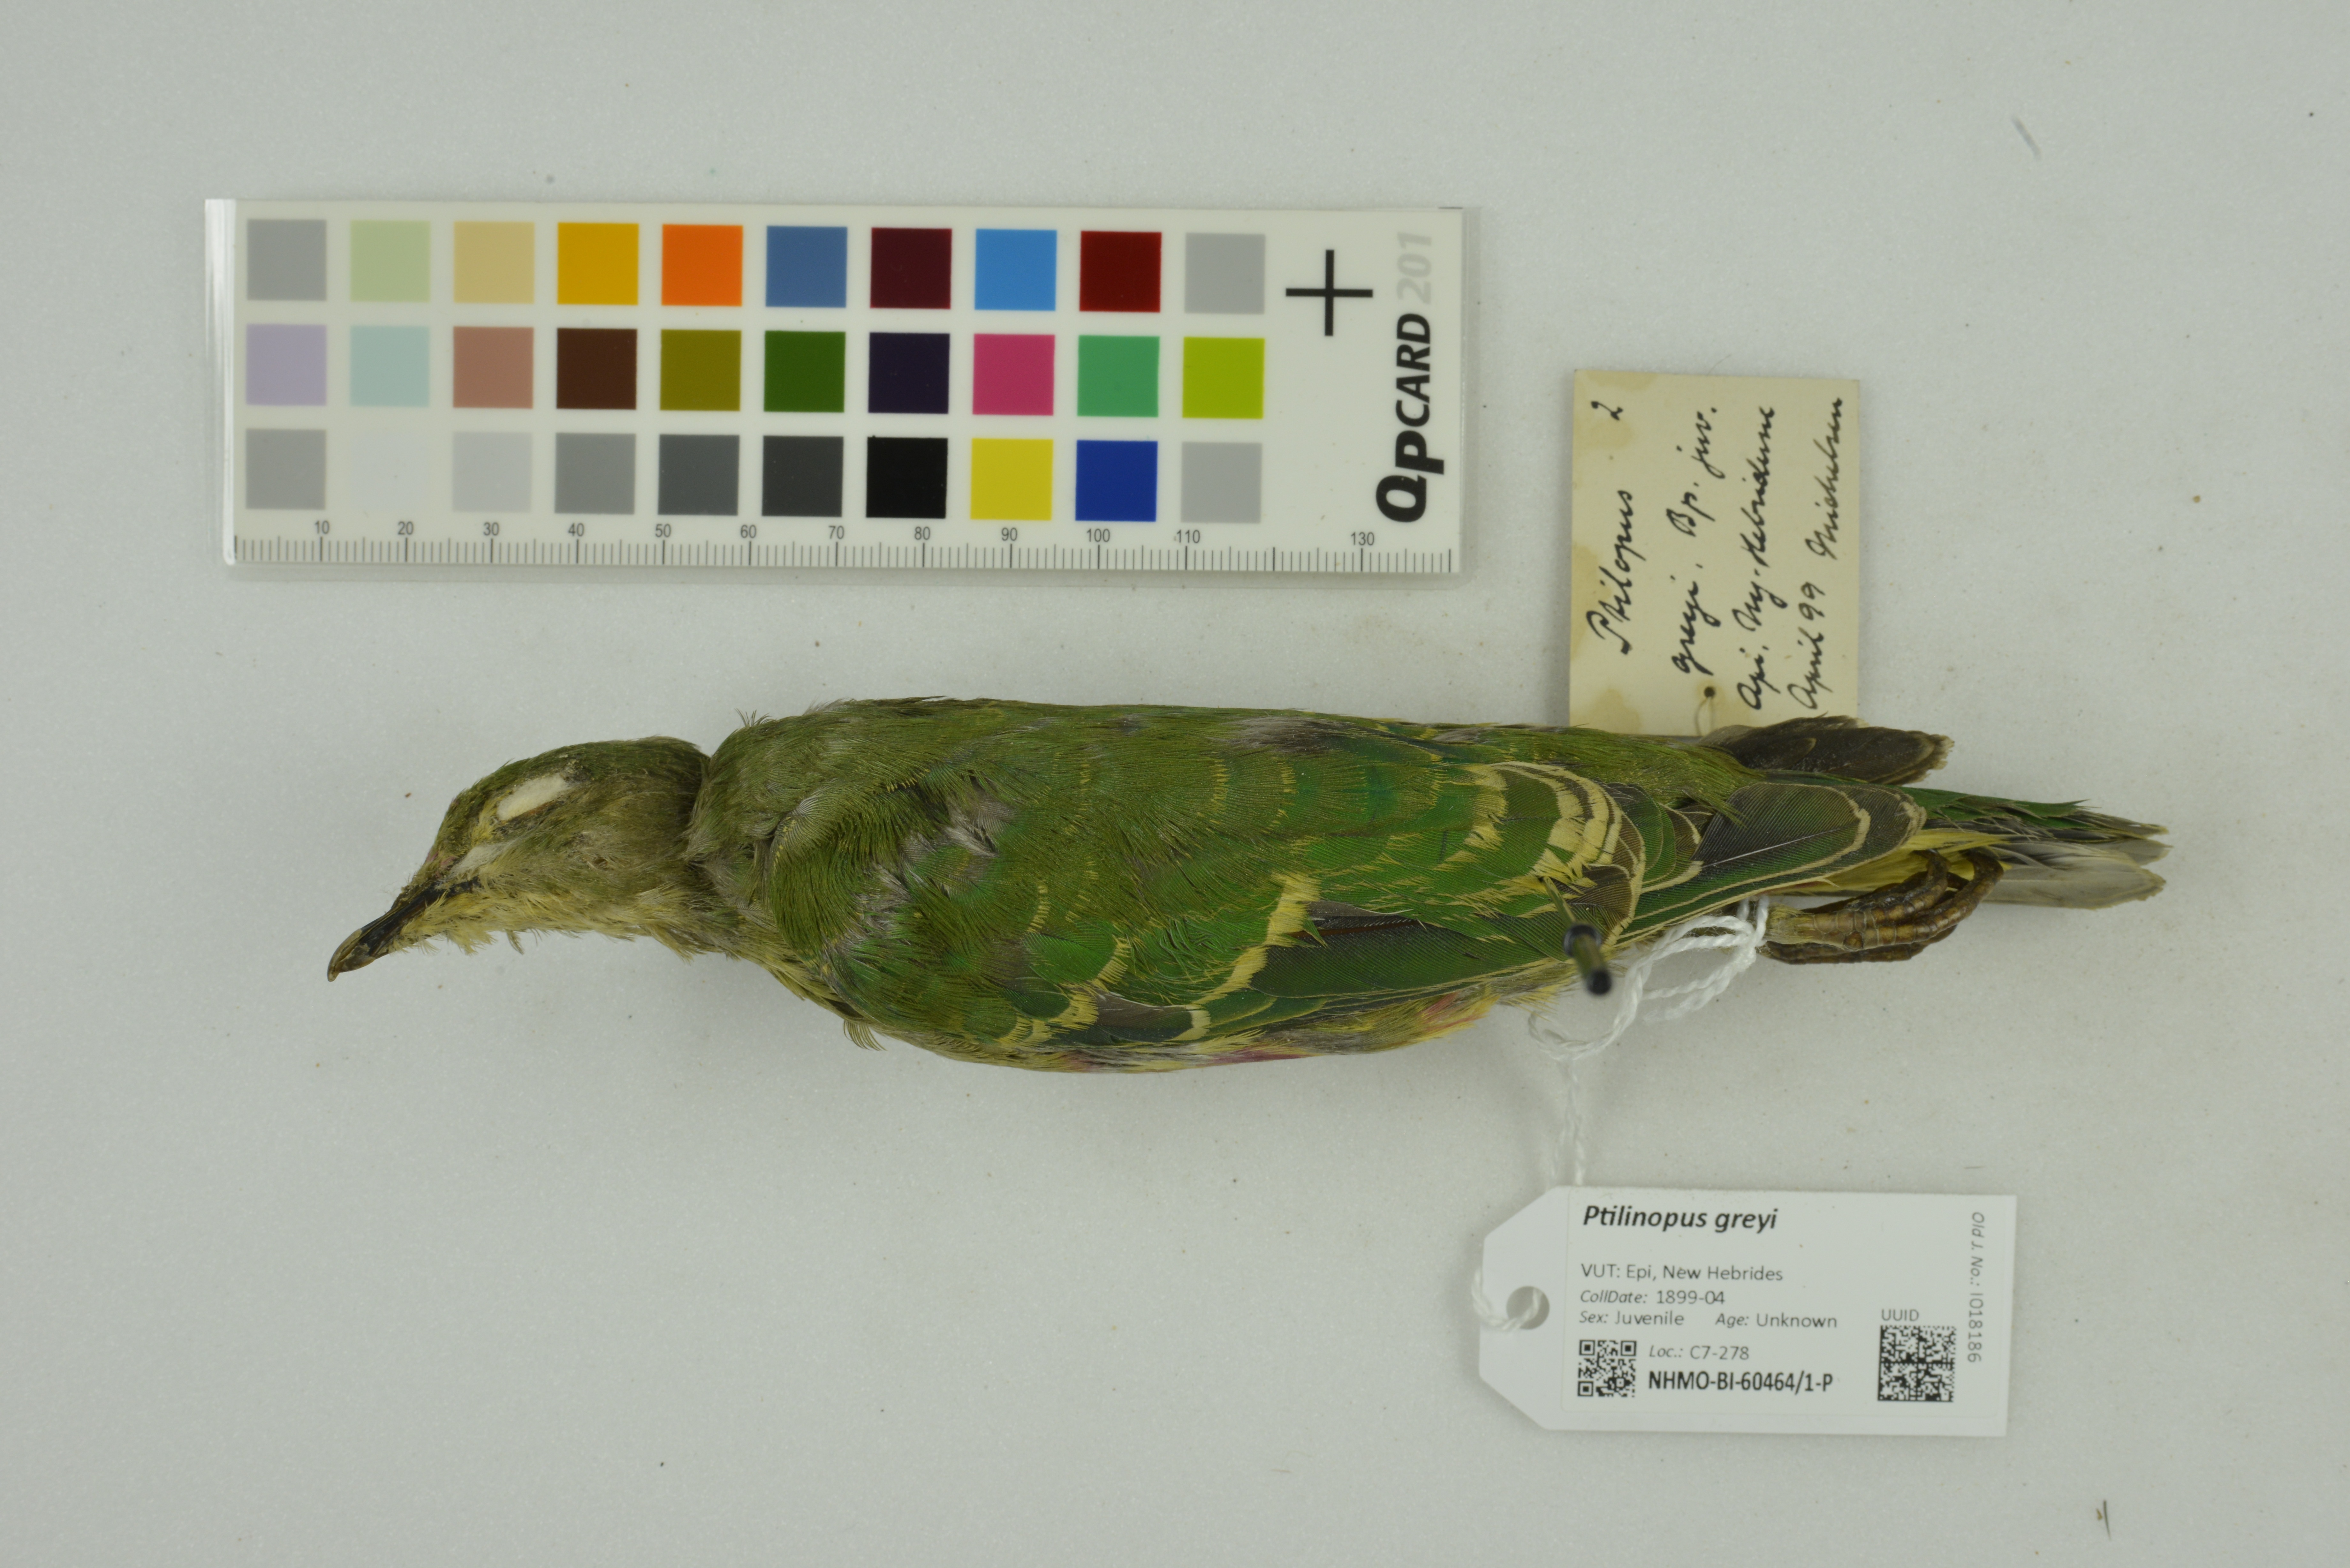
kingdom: Animalia
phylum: Chordata
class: Aves
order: Columbiformes
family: Columbidae
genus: Ptilinopus
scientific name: Ptilinopus greyi
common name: Red-bellied fruit-dove
